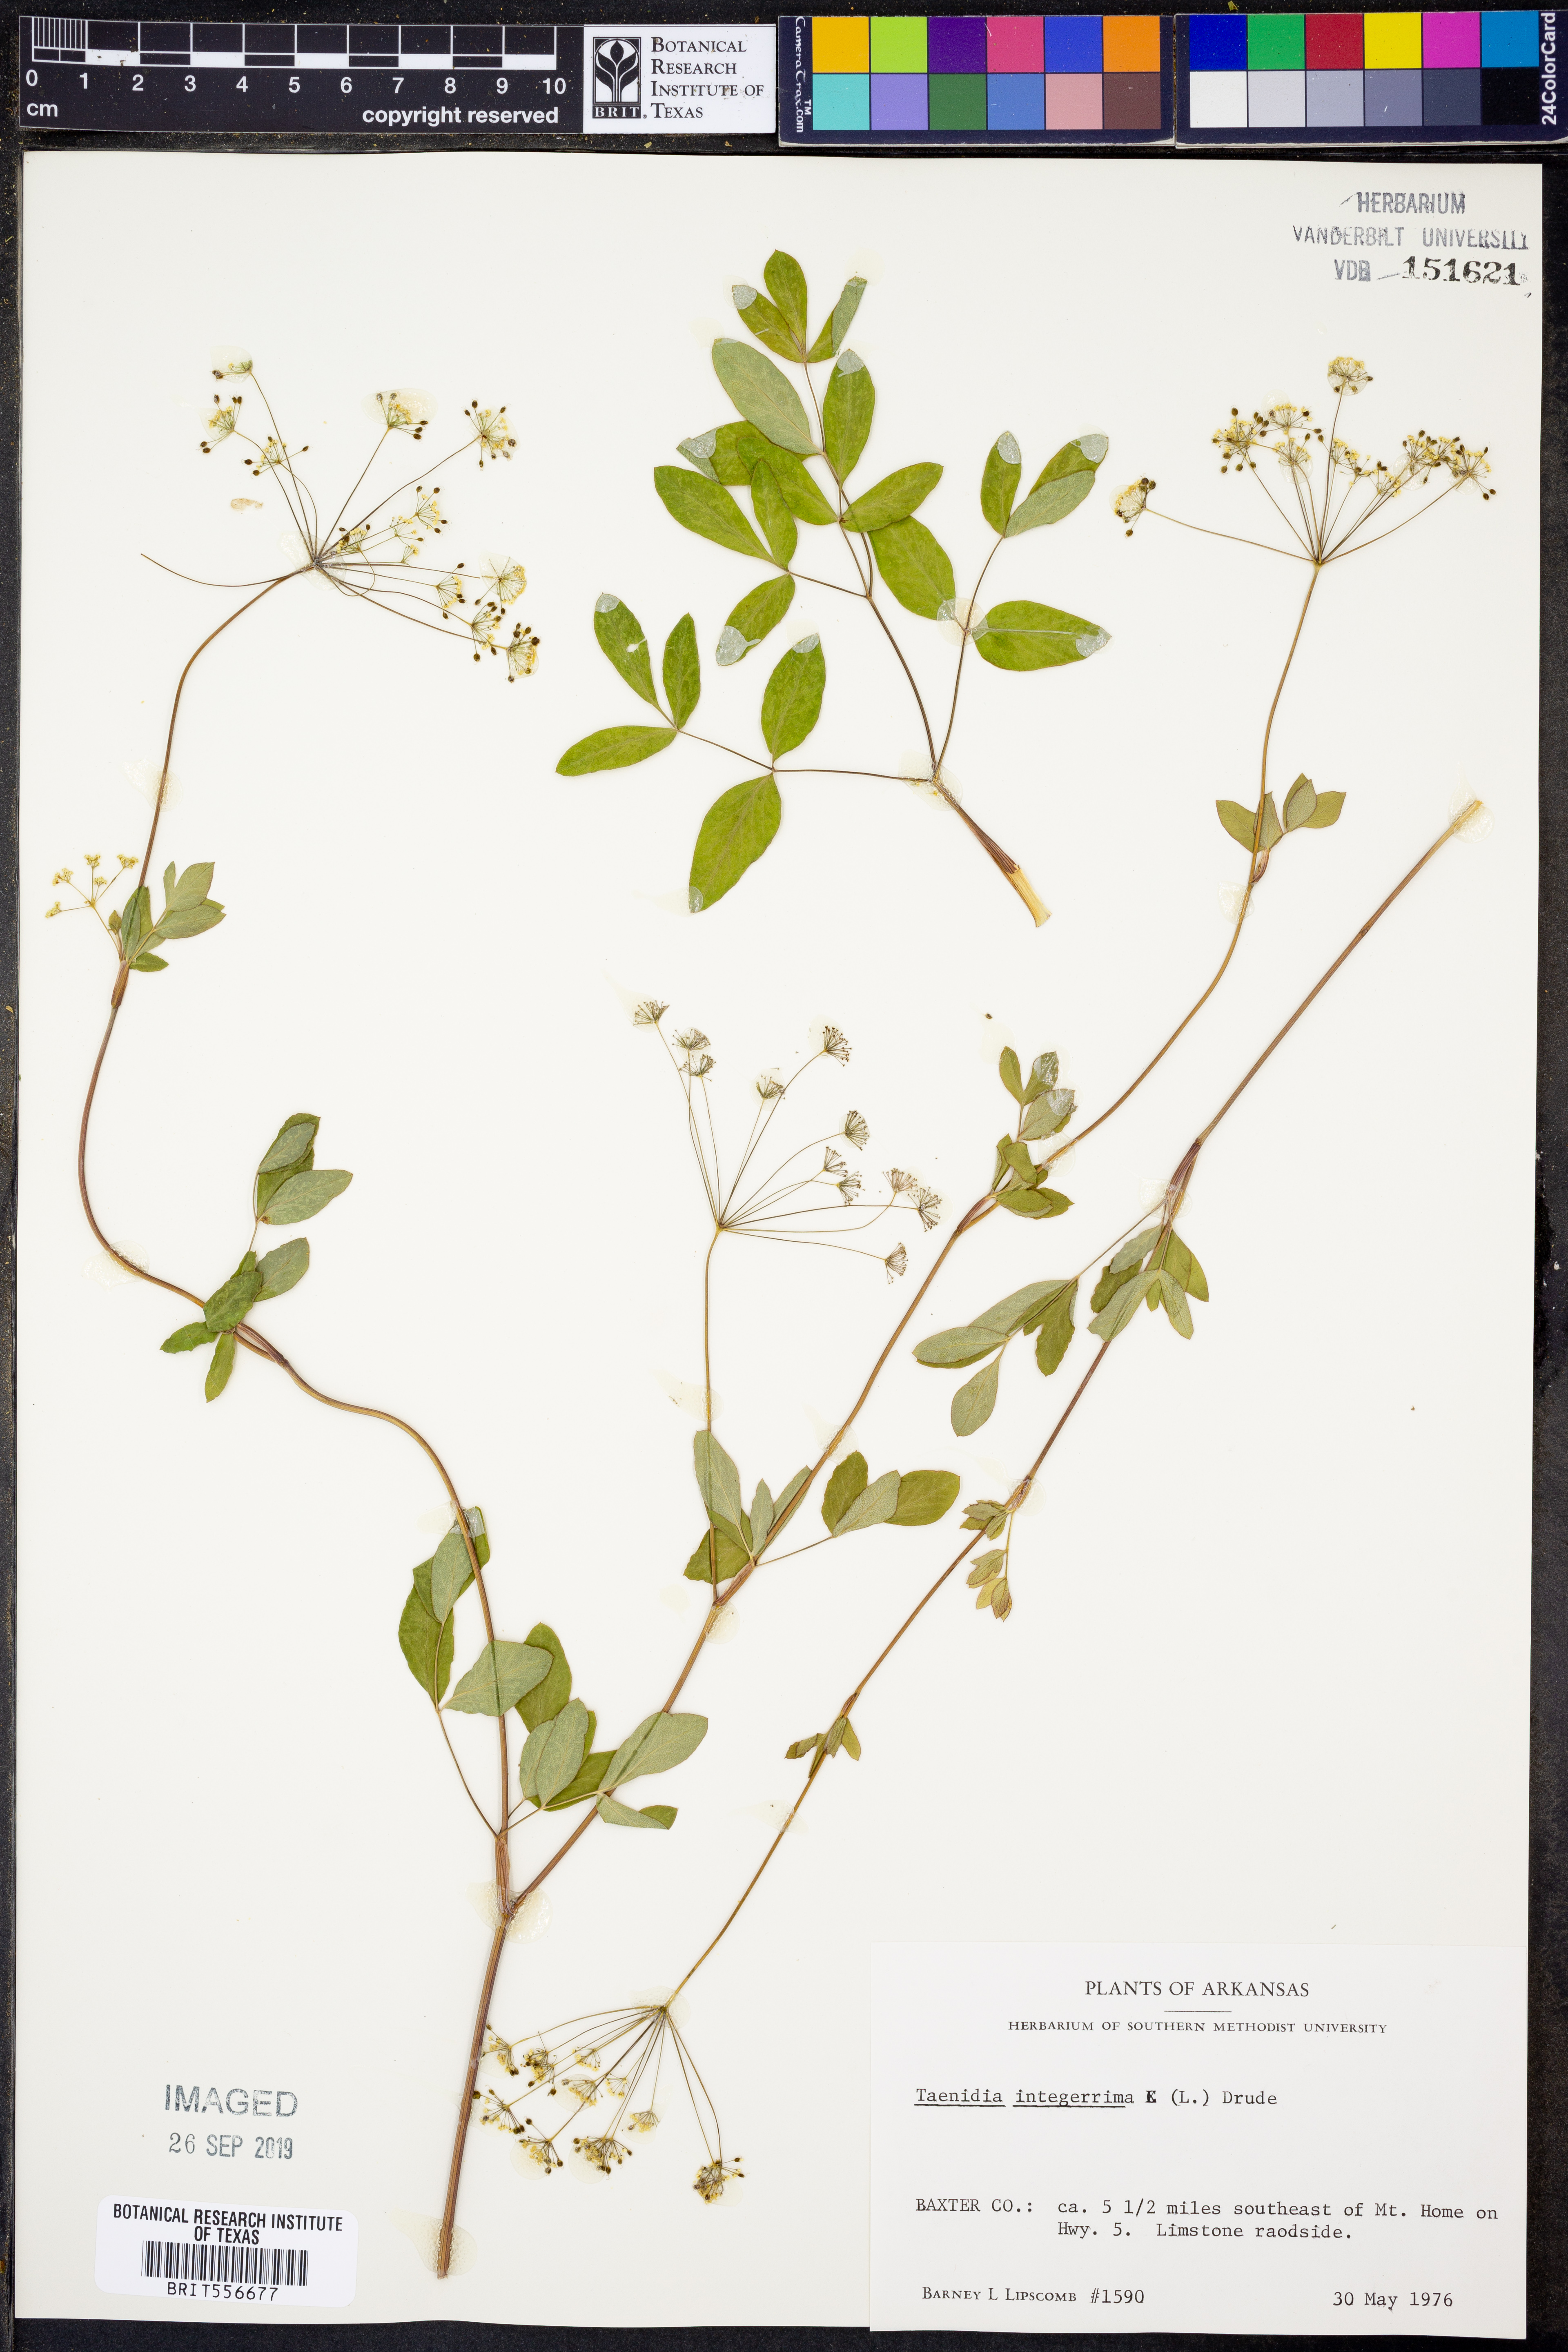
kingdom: Plantae
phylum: Tracheophyta
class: Magnoliopsida
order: Apiales
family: Apiaceae
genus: Taenidia
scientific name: Taenidia integerrima
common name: Golden alexander
